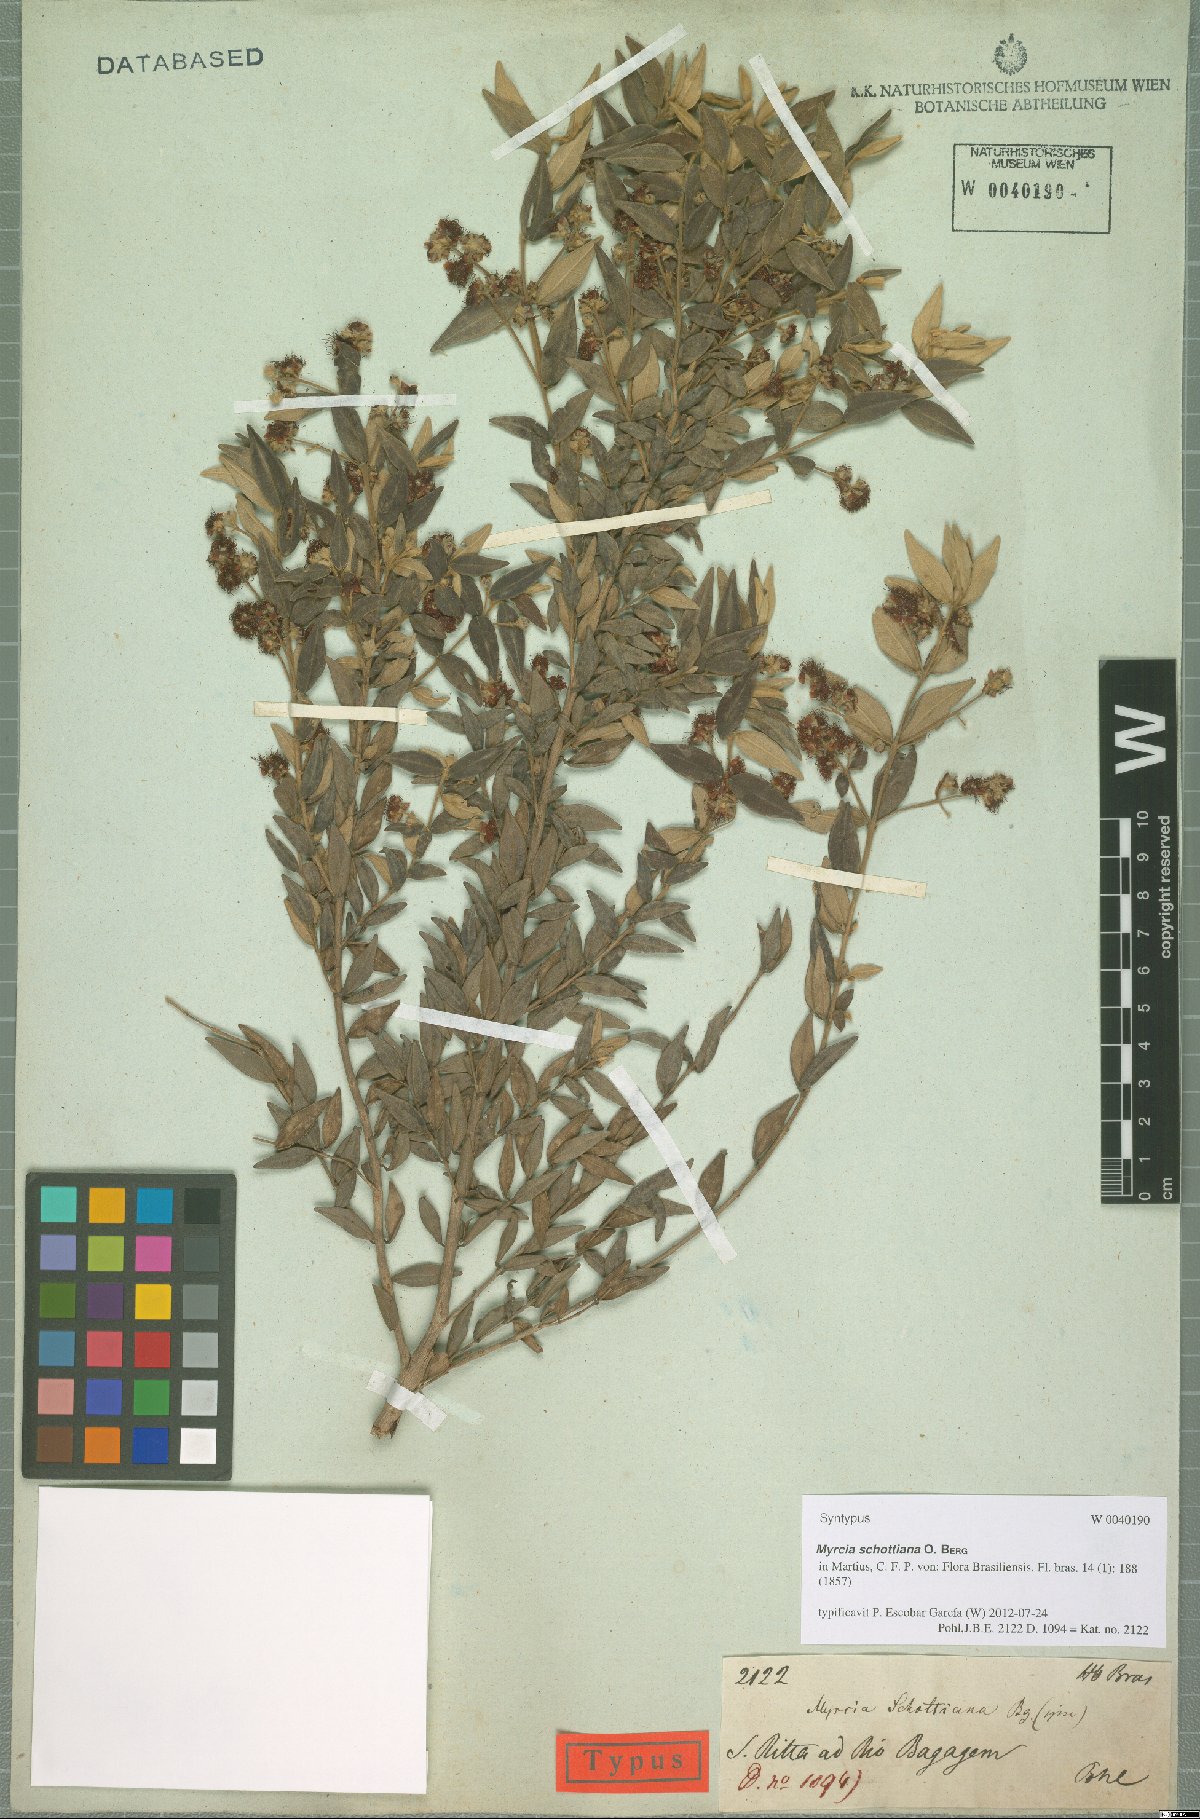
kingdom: Plantae
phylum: Tracheophyta
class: Magnoliopsida
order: Myrtales
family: Myrtaceae
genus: Myrcia
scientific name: Myrcia schottiana
